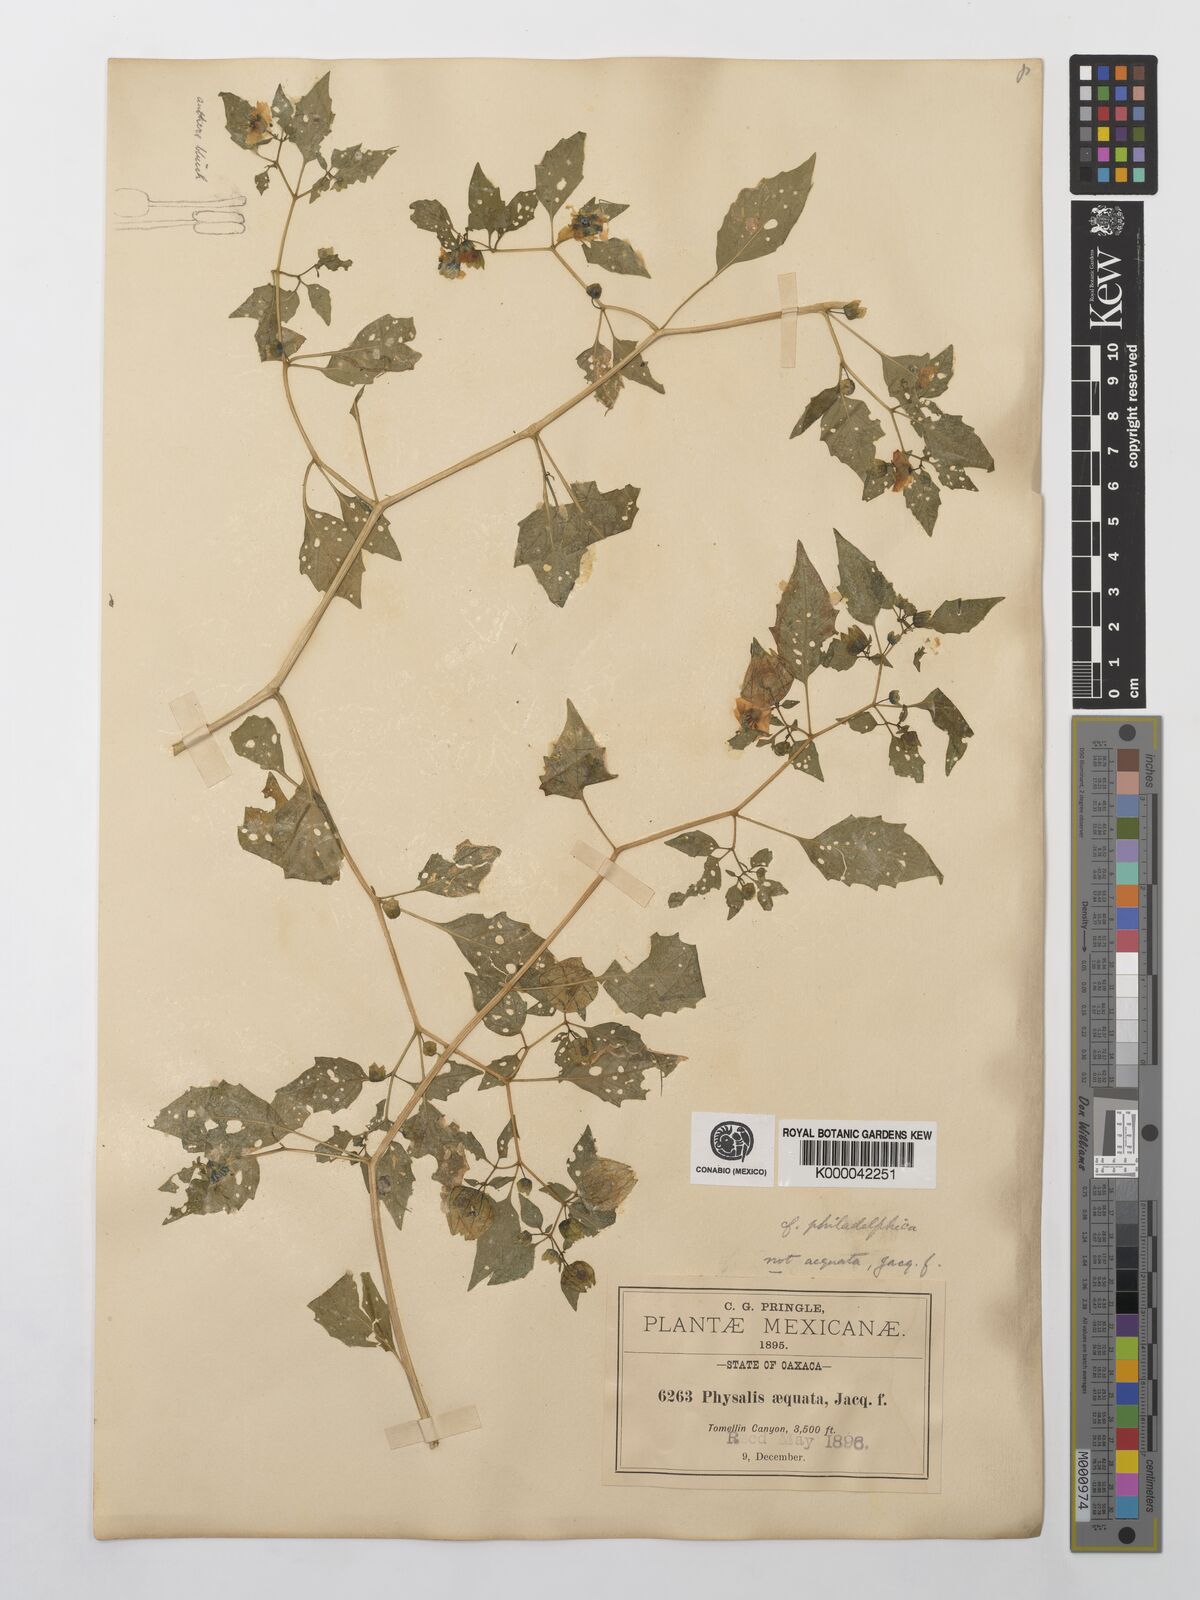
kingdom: Plantae
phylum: Tracheophyta
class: Magnoliopsida
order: Solanales
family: Solanaceae
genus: Physalis
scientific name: Physalis philadelphica
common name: Husk-tomato
